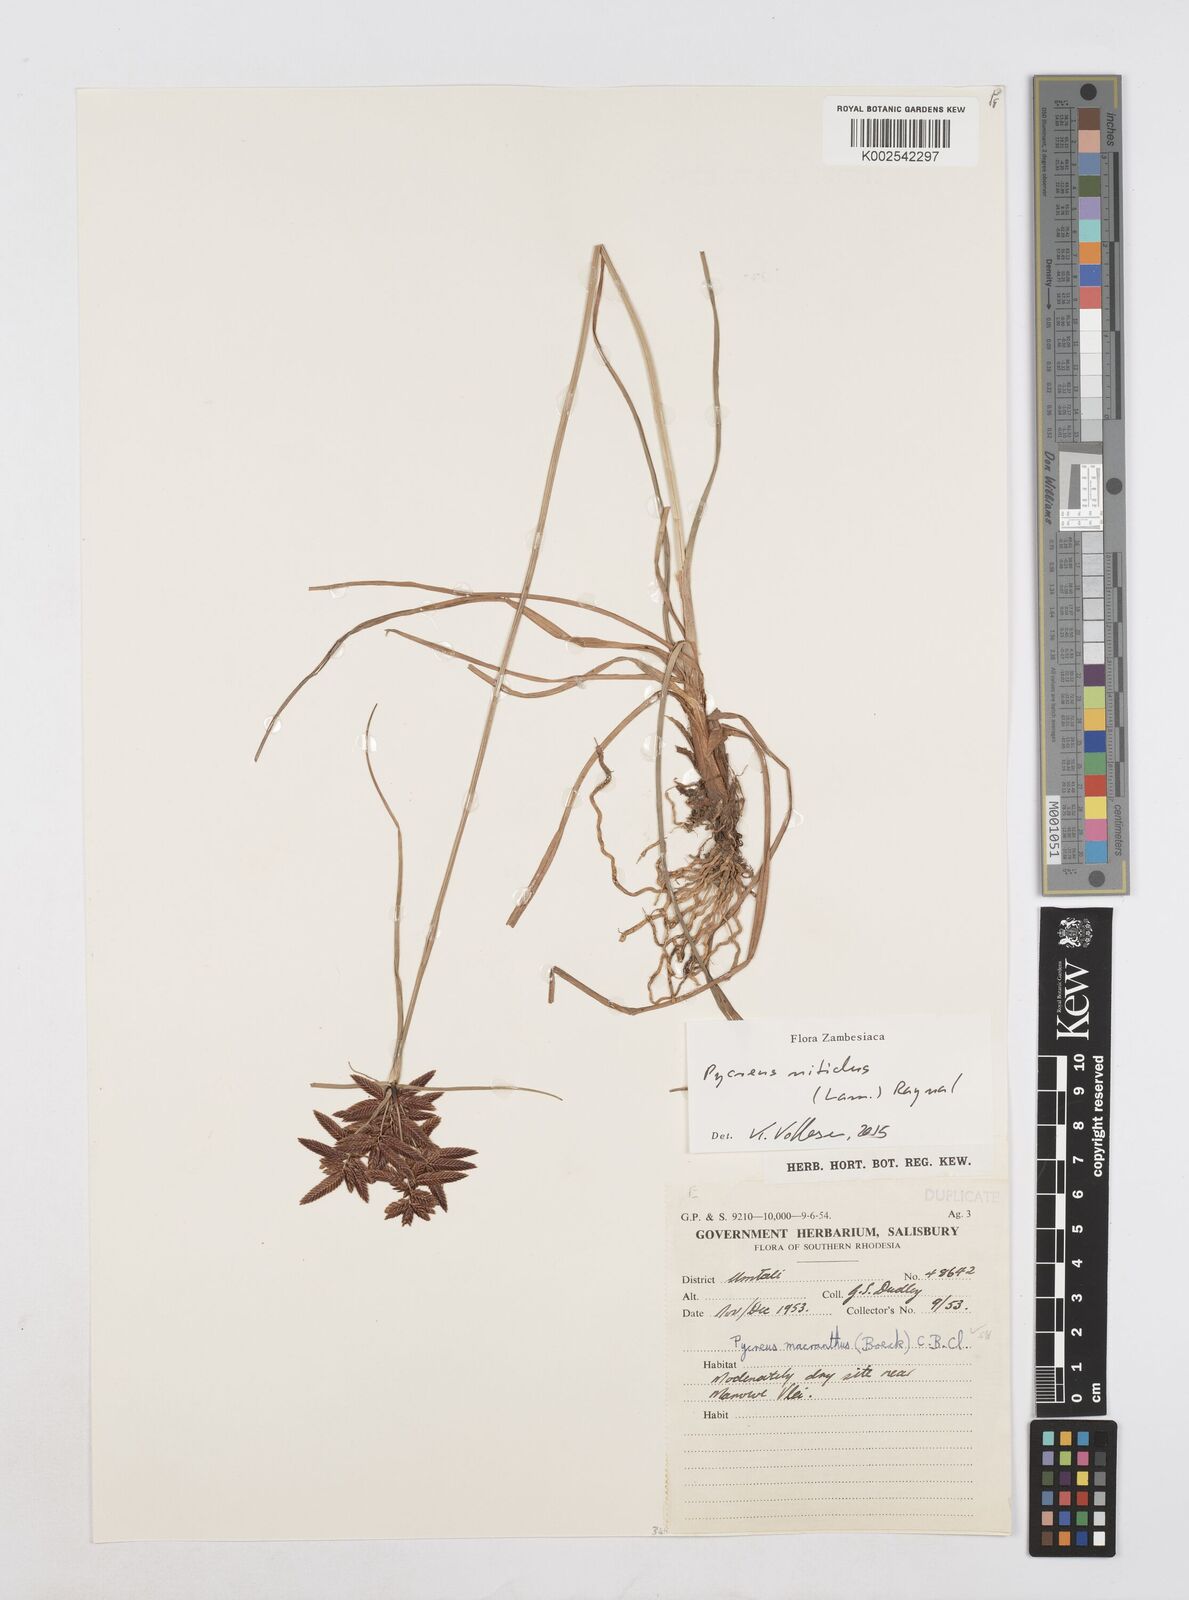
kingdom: Plantae
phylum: Tracheophyta
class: Liliopsida
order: Poales
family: Cyperaceae
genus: Cyperus
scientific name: Cyperus nitidus
